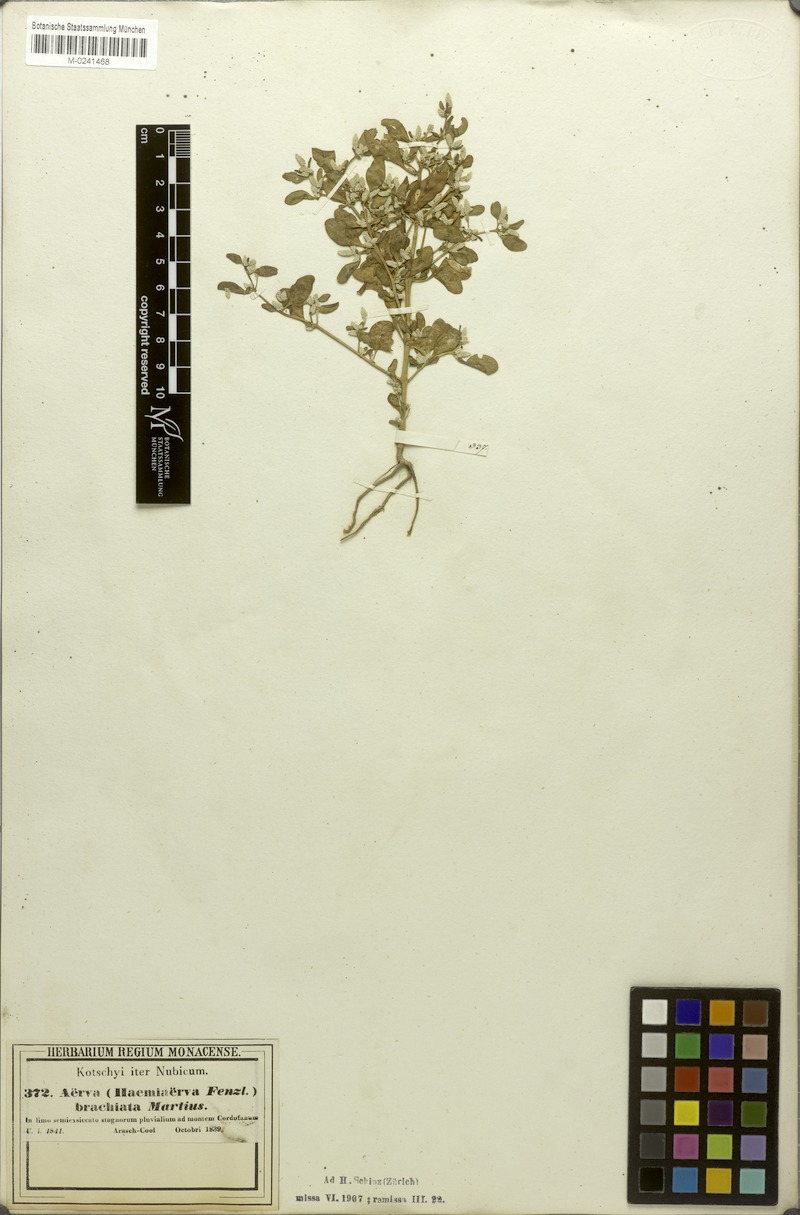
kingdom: Plantae
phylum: Tracheophyta
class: Magnoliopsida
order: Caryophyllales
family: Amaranthaceae
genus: Nothosaerva
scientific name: Nothosaerva brachiata
